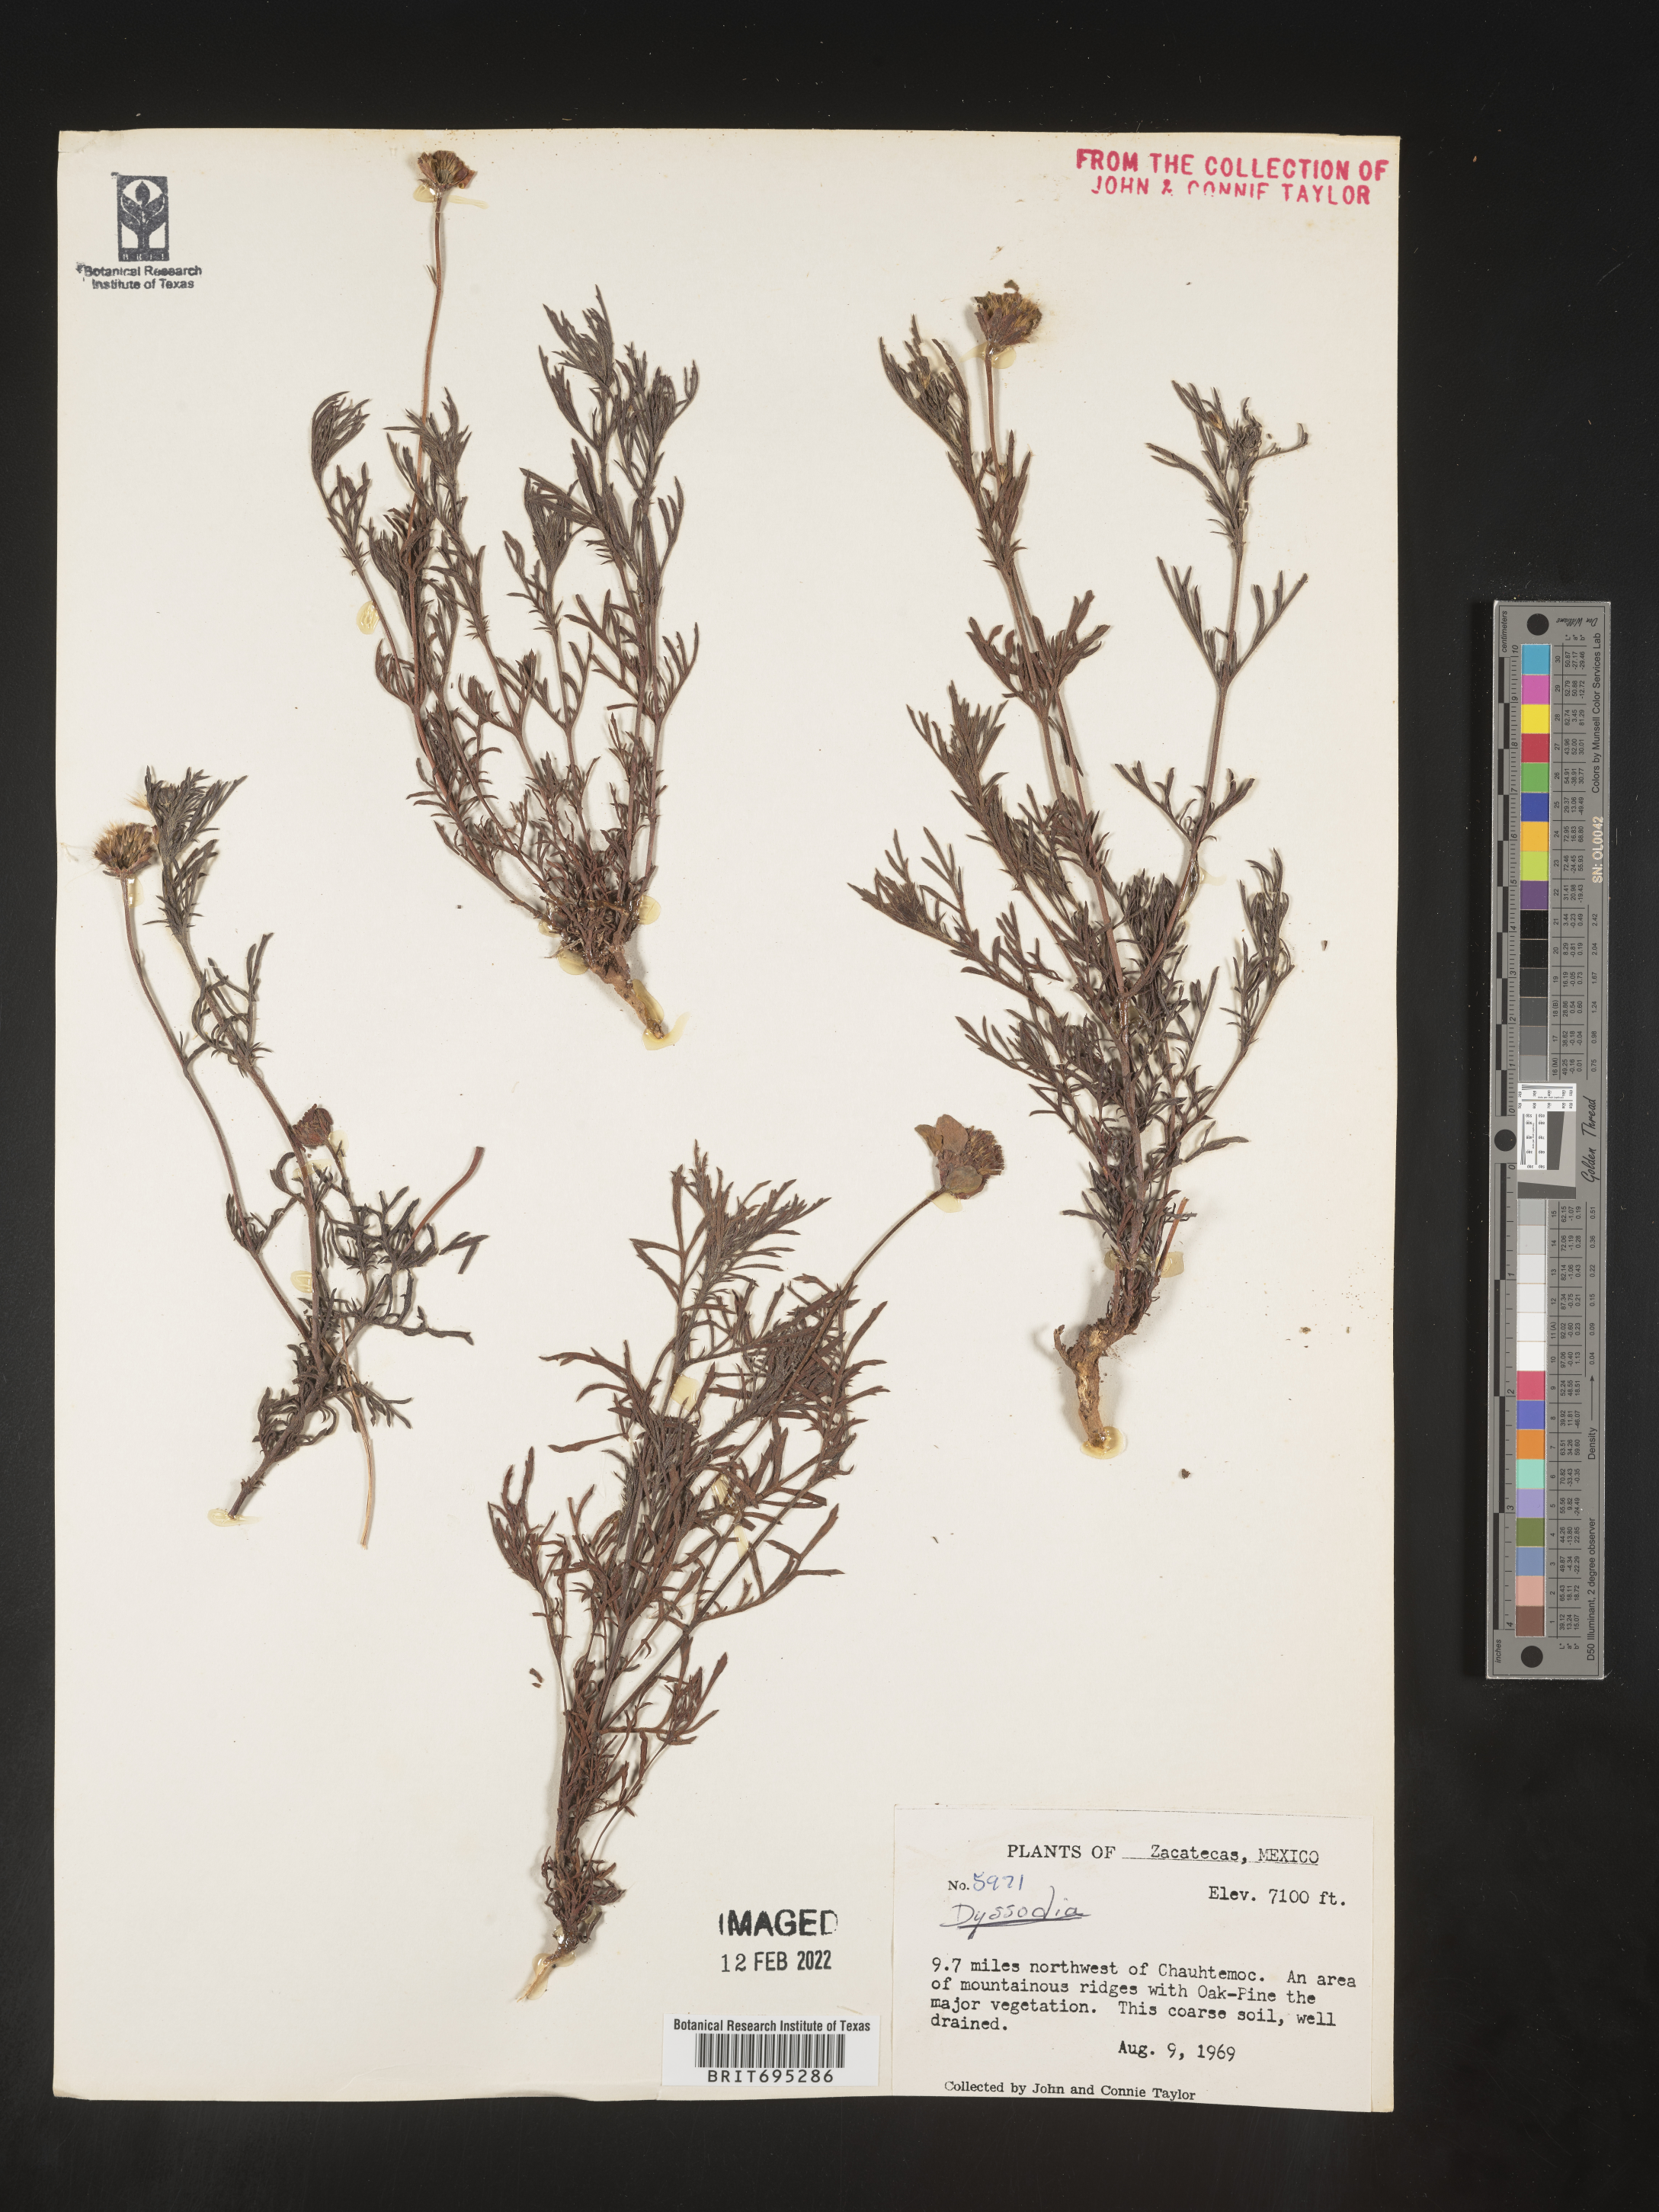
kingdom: Plantae
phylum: Tracheophyta
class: Magnoliopsida
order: Asterales
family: Asteraceae
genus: Dyssodia
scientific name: Dyssodia
